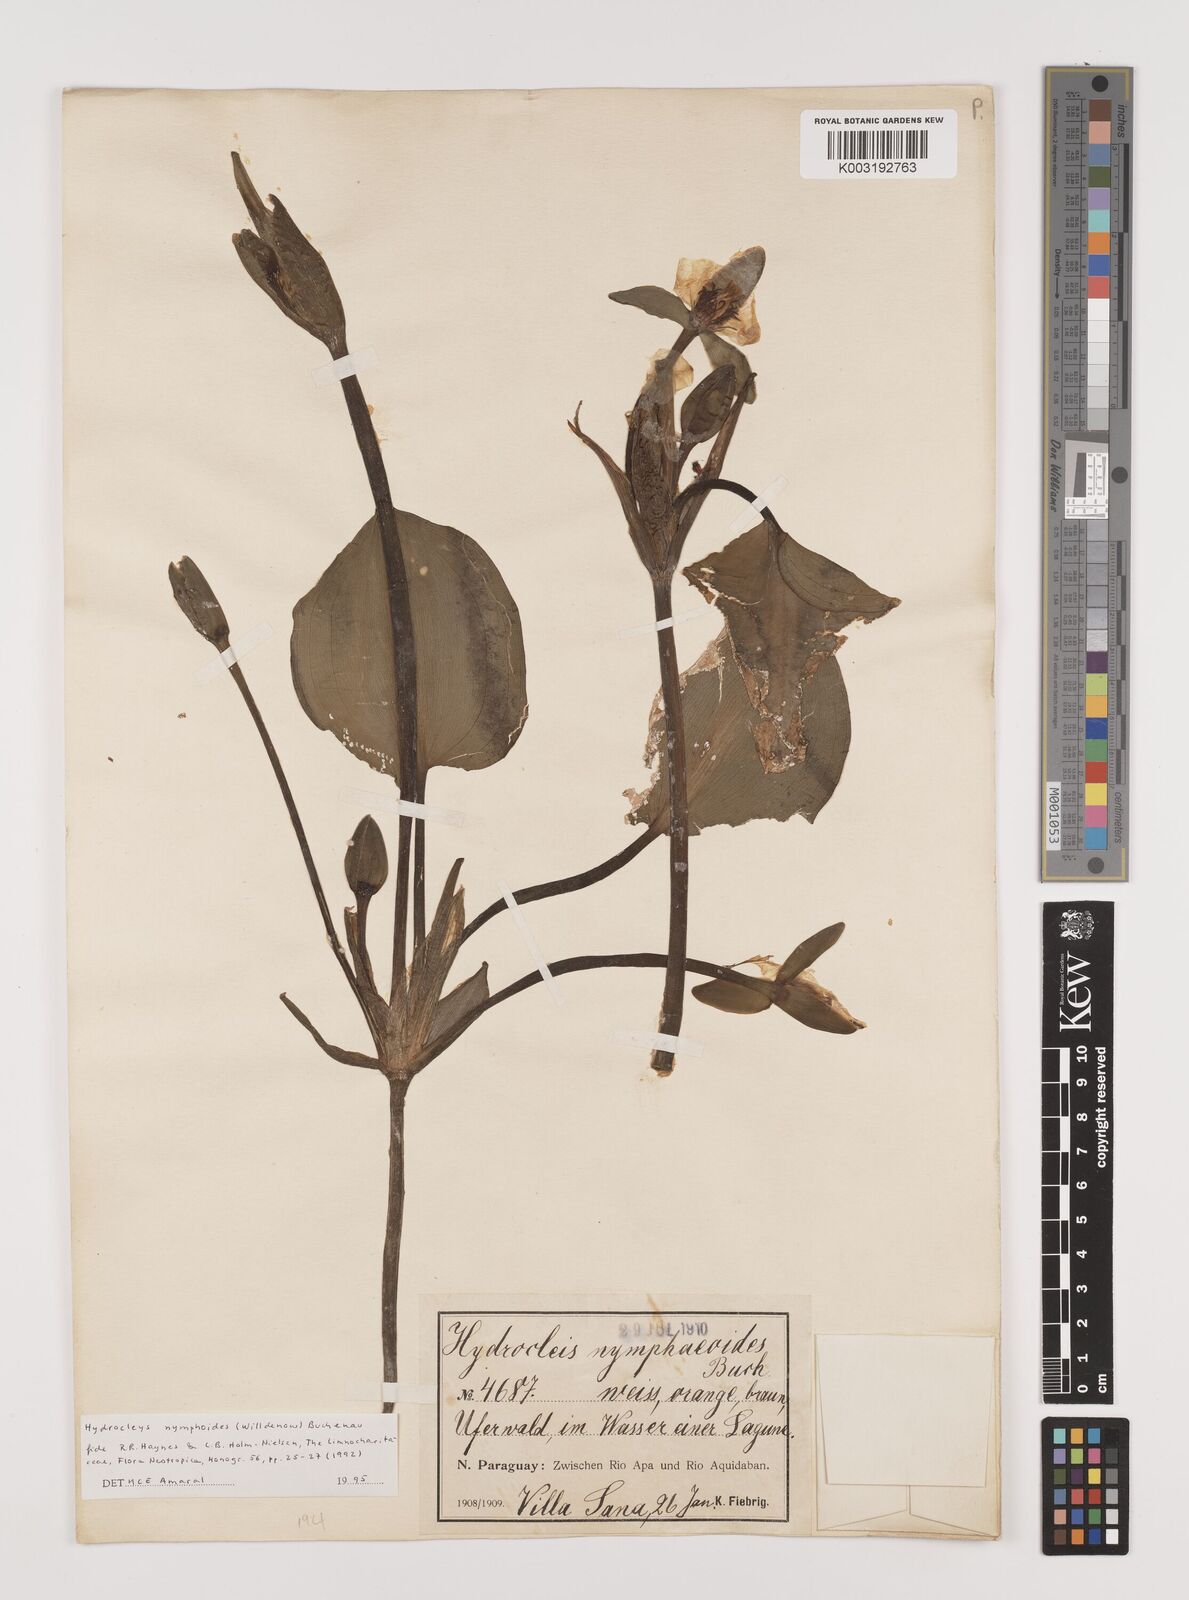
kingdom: Plantae
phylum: Tracheophyta
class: Liliopsida
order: Alismatales
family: Alismataceae
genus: Hydrocleys
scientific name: Hydrocleys nymphoides
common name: Water-poppy
